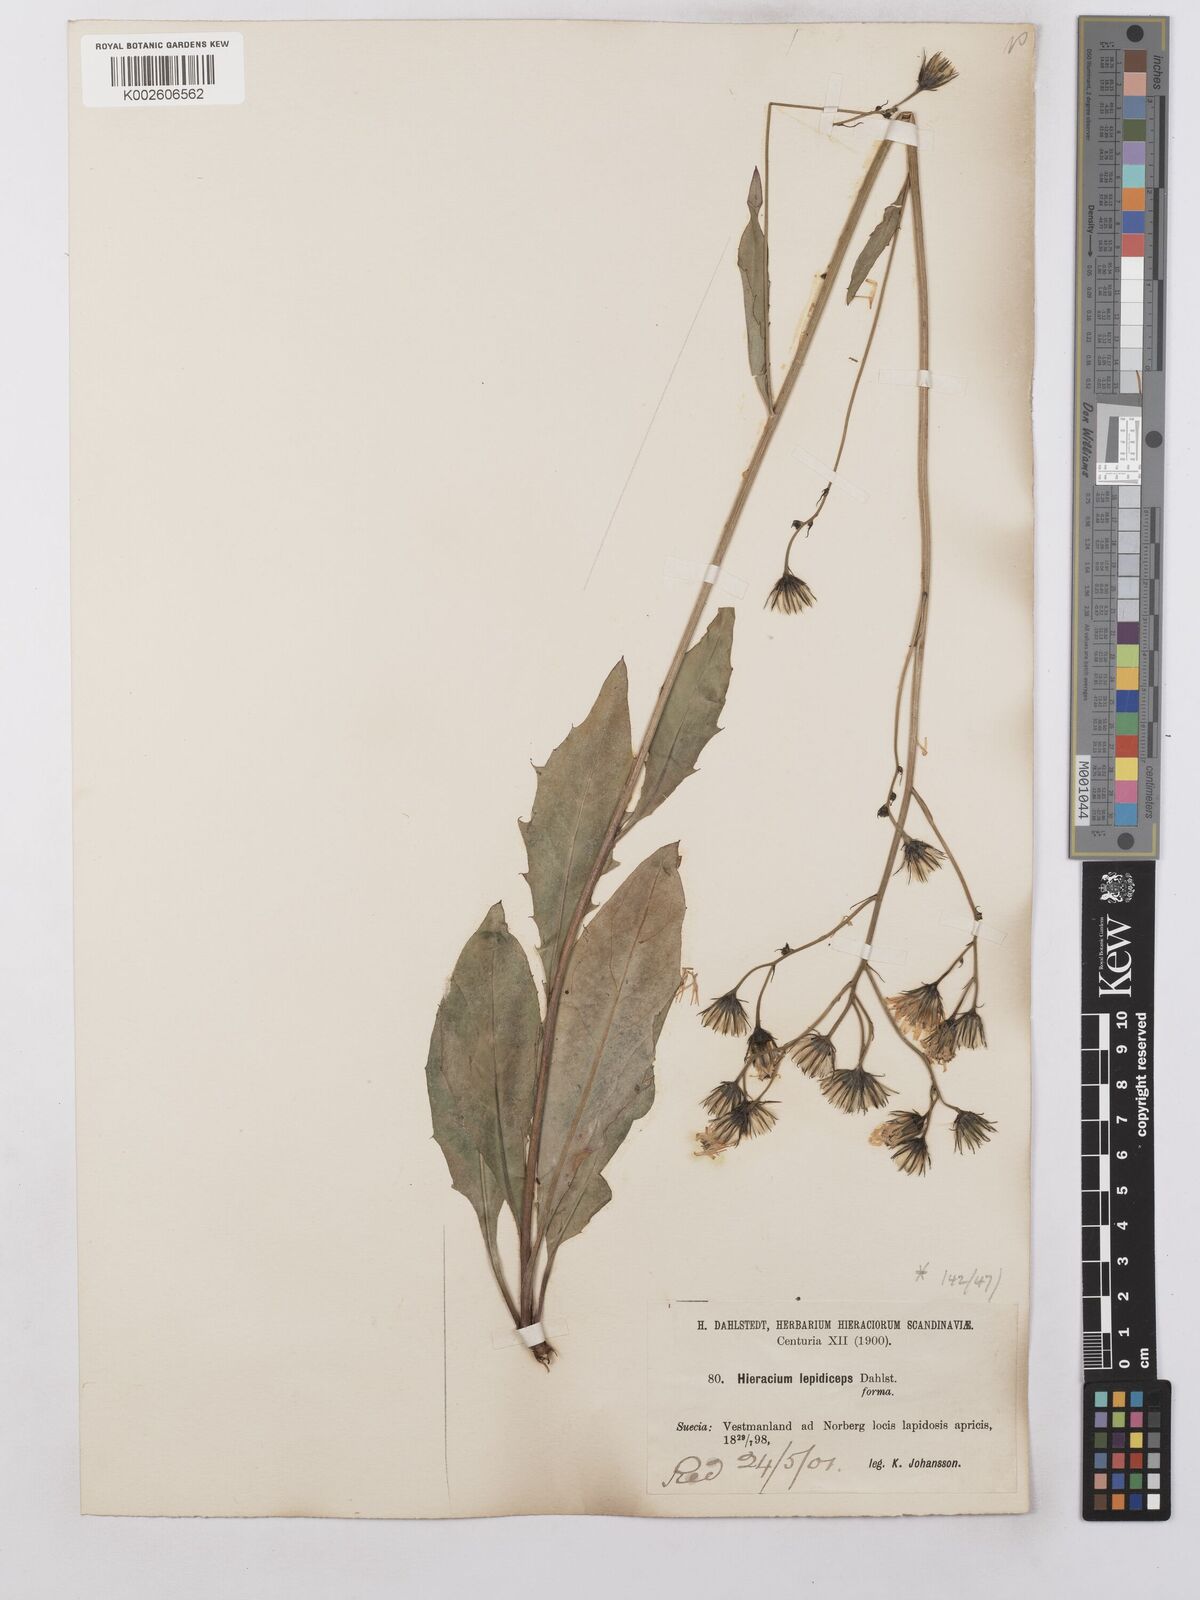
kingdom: Plantae
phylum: Tracheophyta
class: Magnoliopsida
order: Asterales
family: Asteraceae
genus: Hieracium
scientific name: Hieracium lachenalii
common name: Common hawkweed
